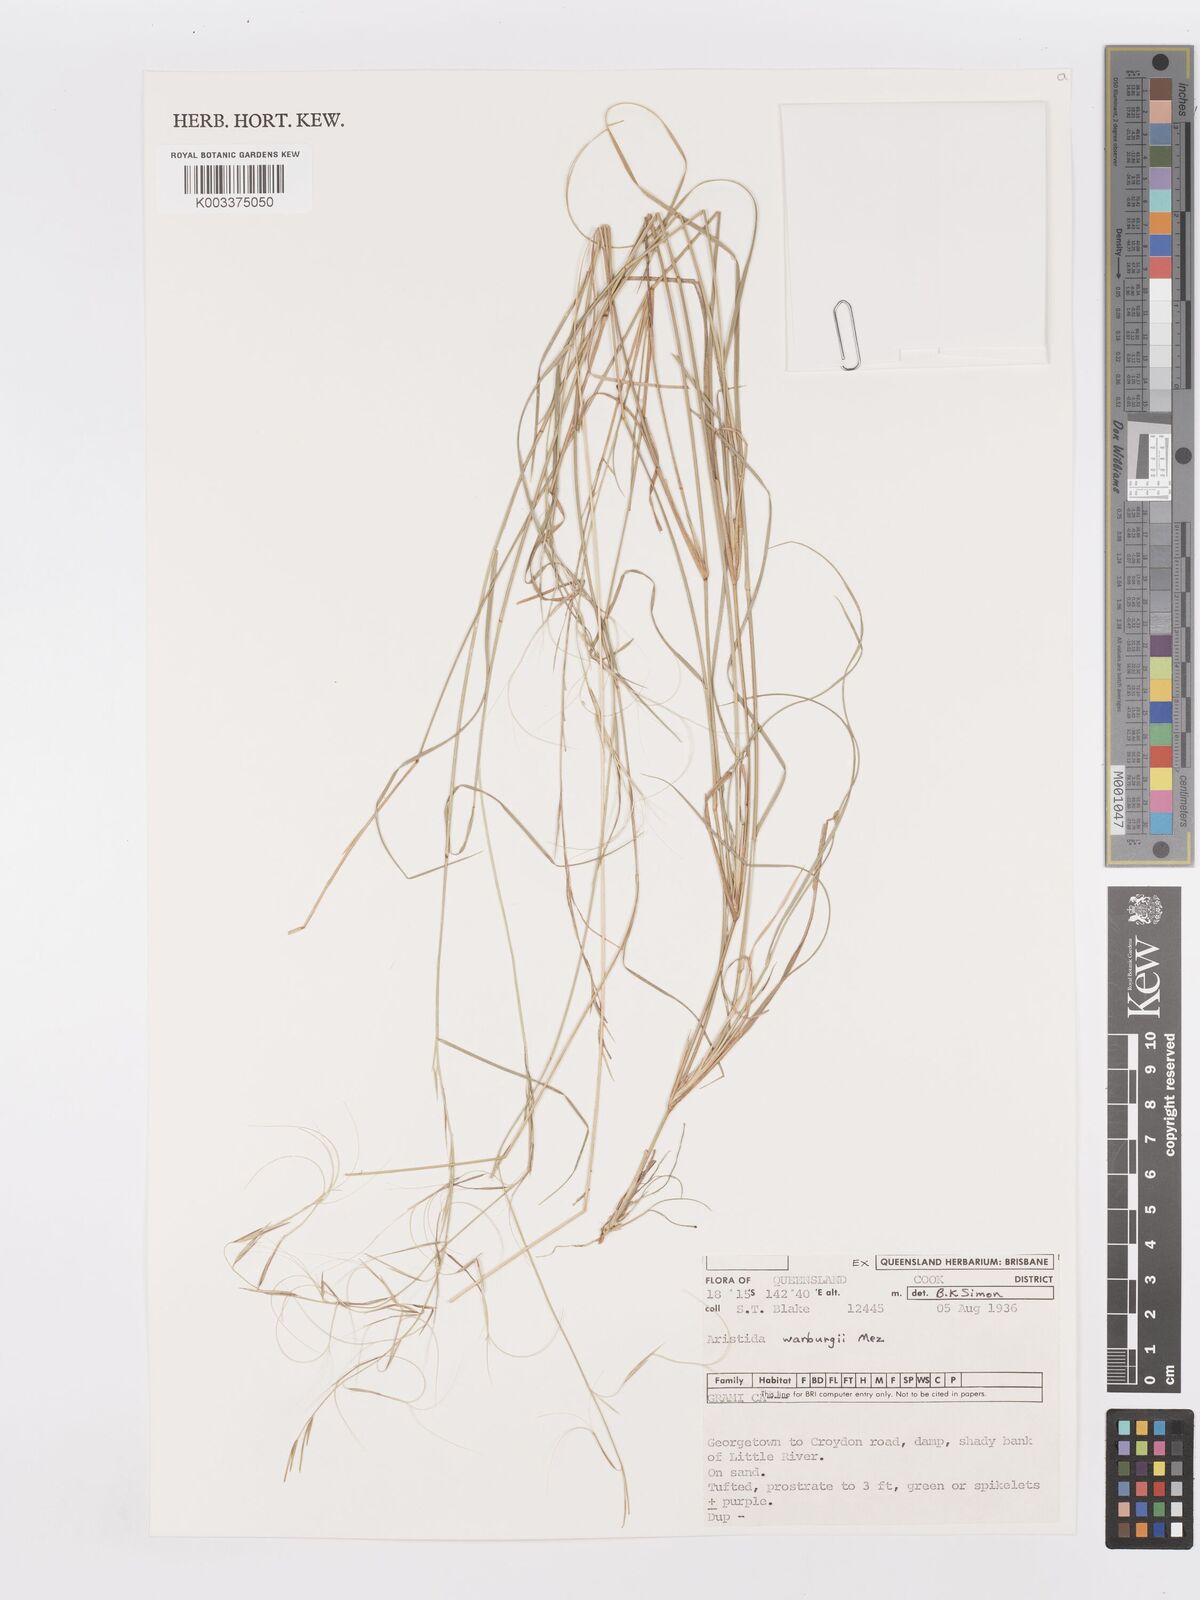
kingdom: Plantae
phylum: Tracheophyta
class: Liliopsida
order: Poales
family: Poaceae
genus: Aristida
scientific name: Aristida warburgii
